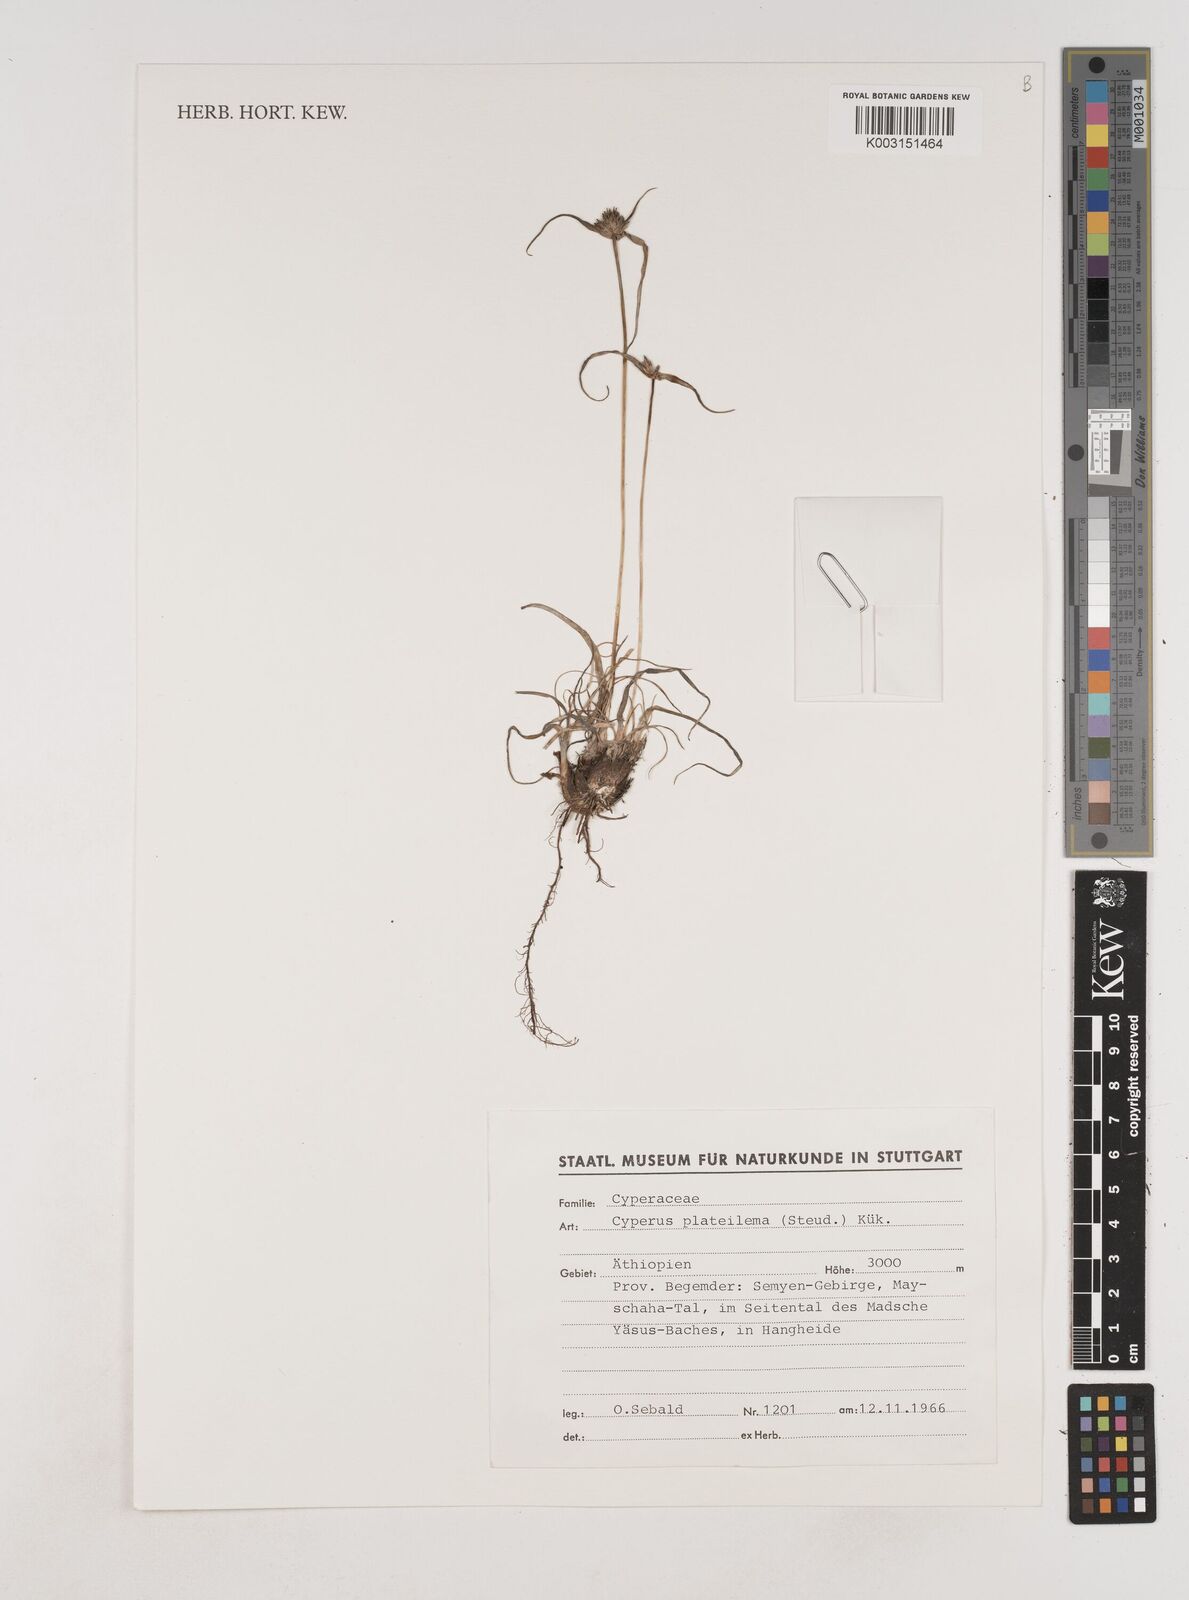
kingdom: Plantae
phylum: Tracheophyta
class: Liliopsida
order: Poales
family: Cyperaceae
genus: Cyperus
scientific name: Cyperus plateilema
